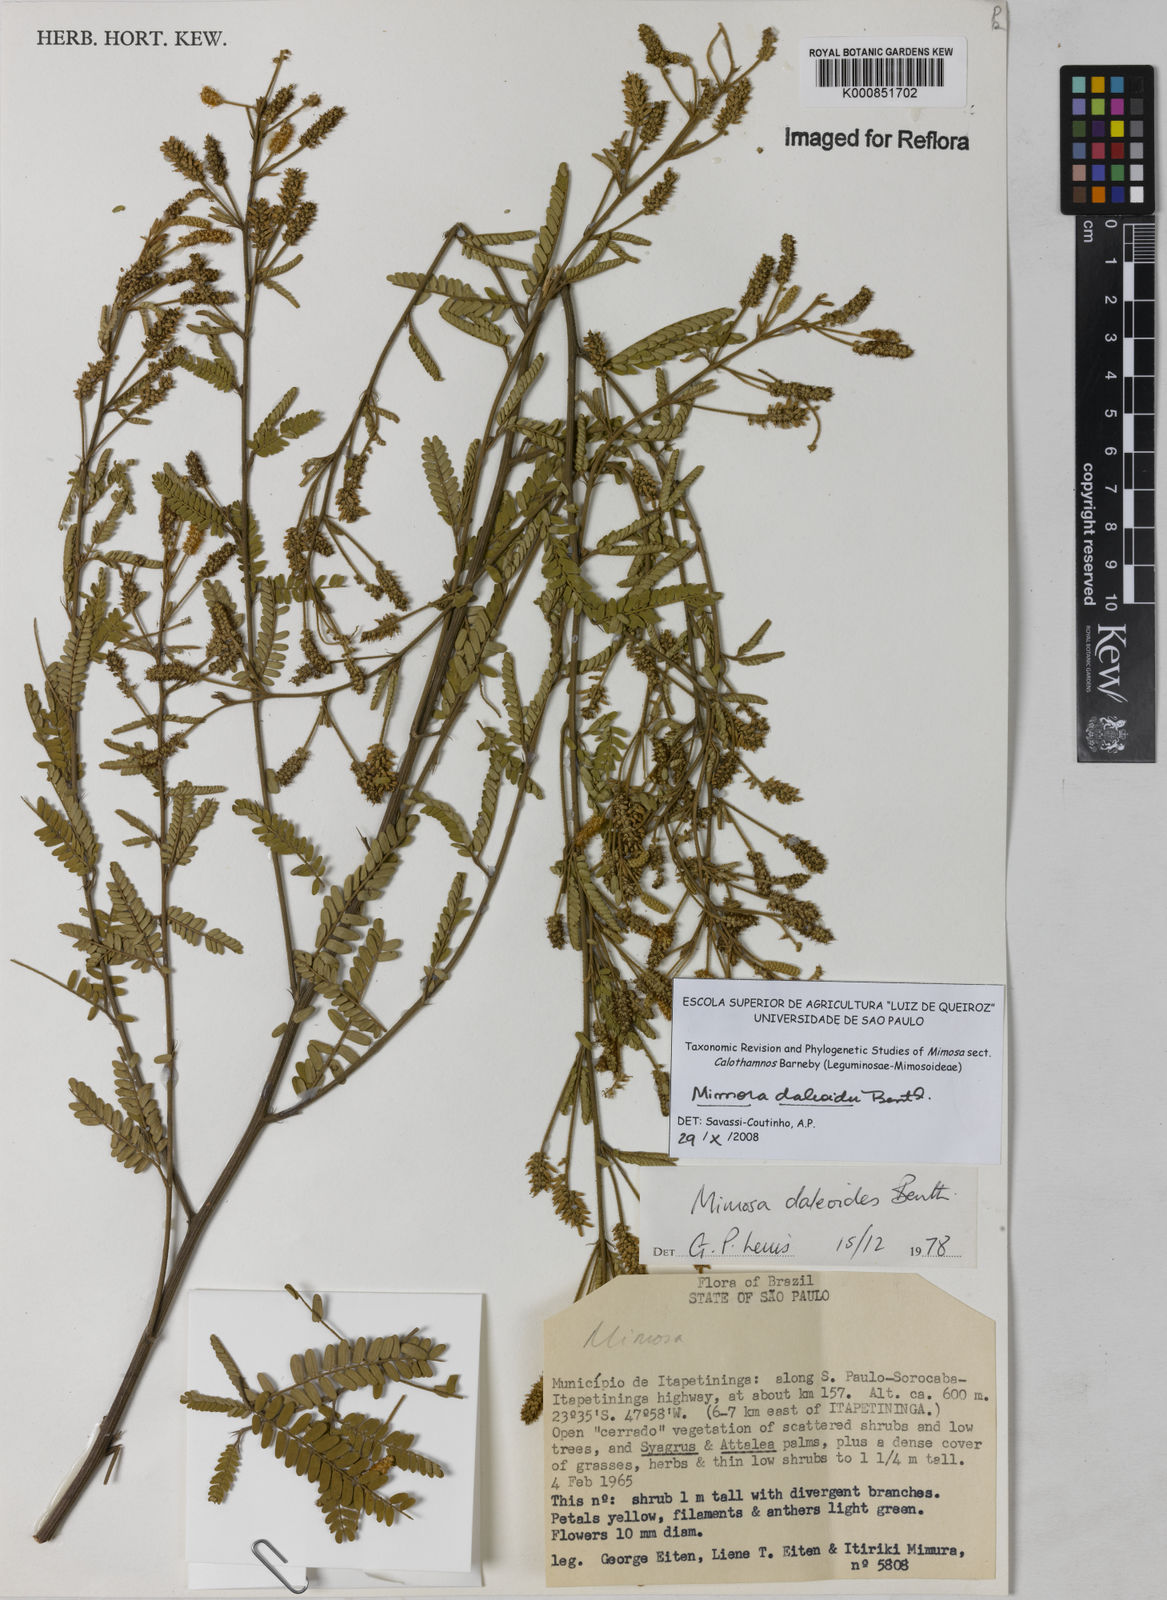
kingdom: Plantae
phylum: Tracheophyta
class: Magnoliopsida
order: Fabales
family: Fabaceae
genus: Mimosa
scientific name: Mimosa daleoides
